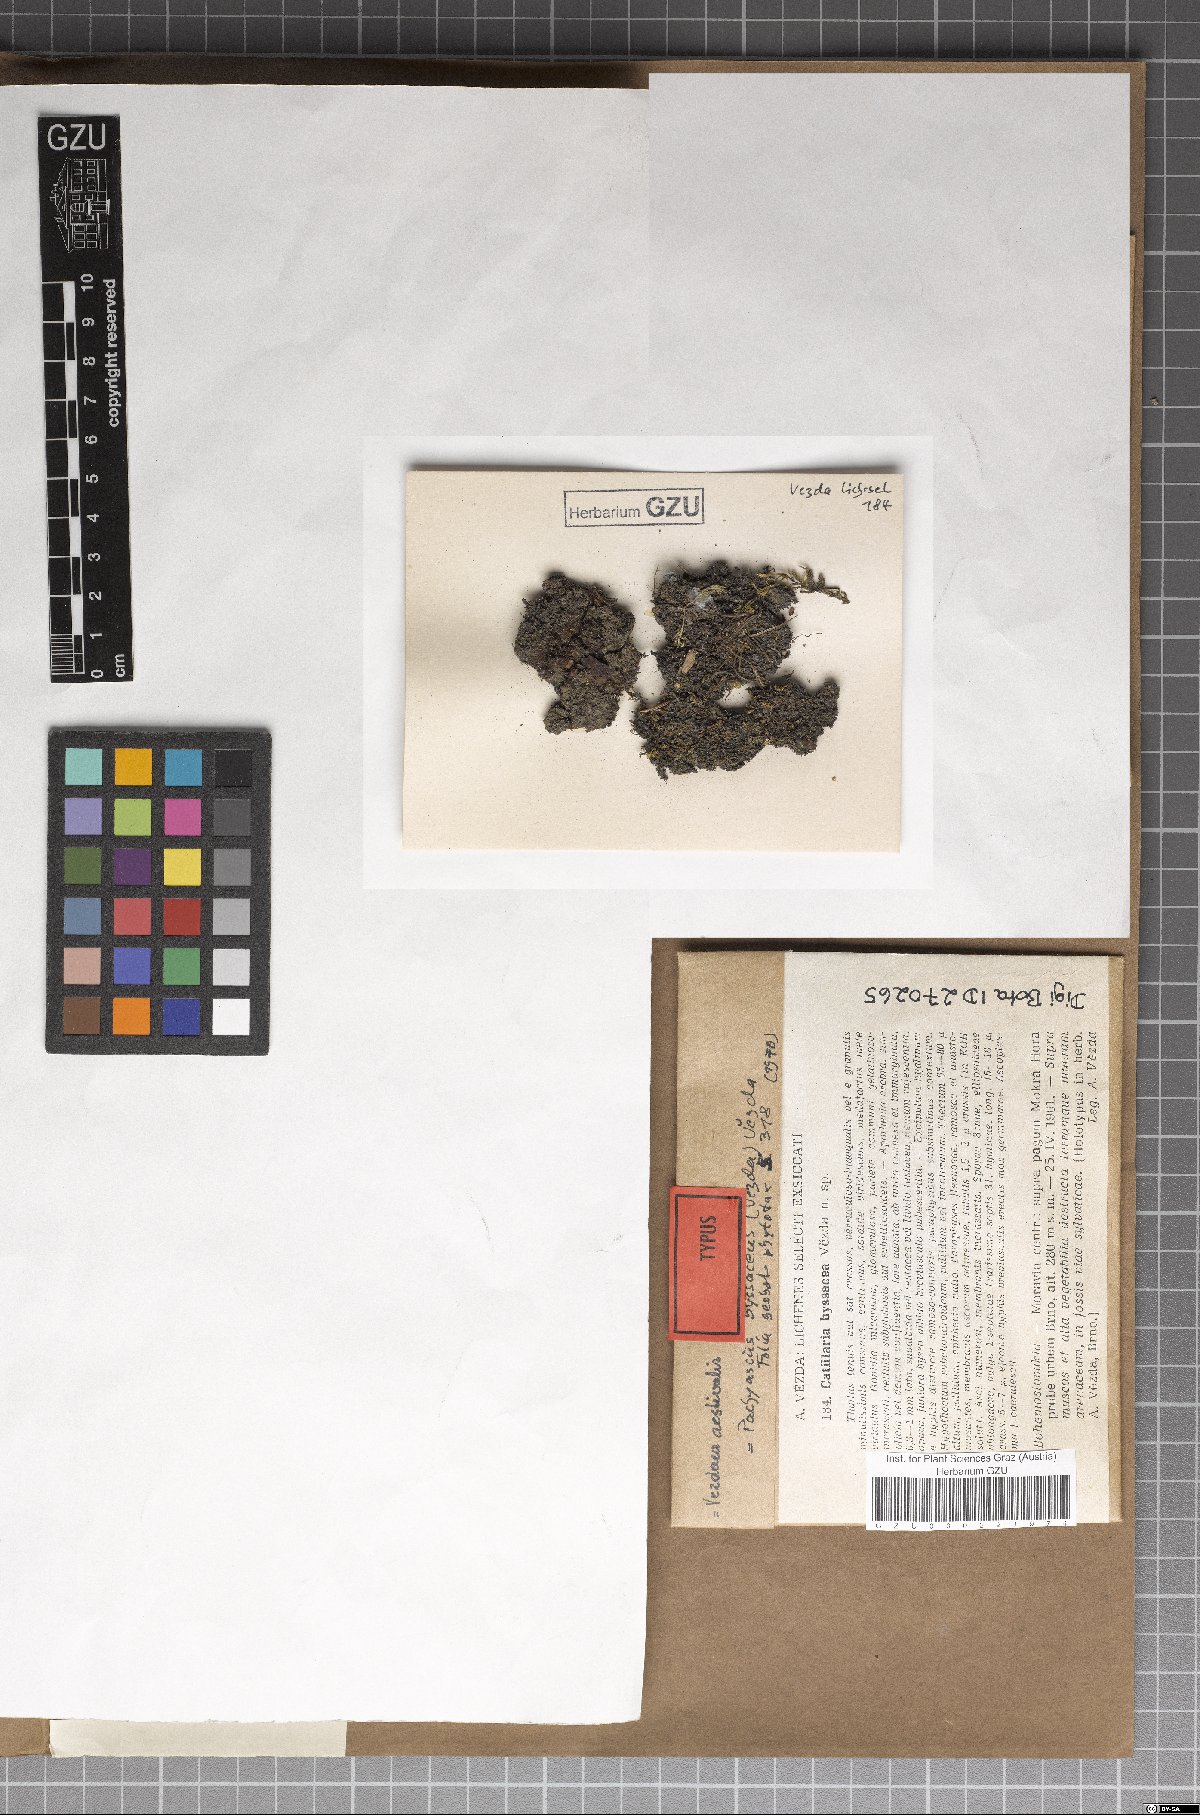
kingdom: Fungi
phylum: Ascomycota
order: Vezdaeales
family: Vezdaeaceae
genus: Vezdaea
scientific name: Vezdaea aestivalis
